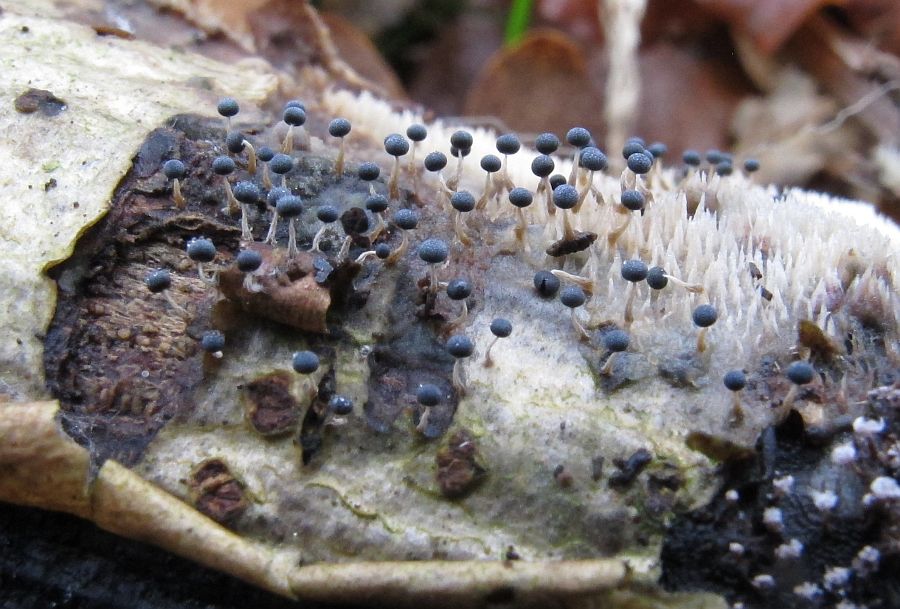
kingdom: Protozoa
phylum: Mycetozoa
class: Myxomycetes
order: Physarales
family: Physaraceae
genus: Physarum
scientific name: Physarum album
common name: nikkende støvknop
